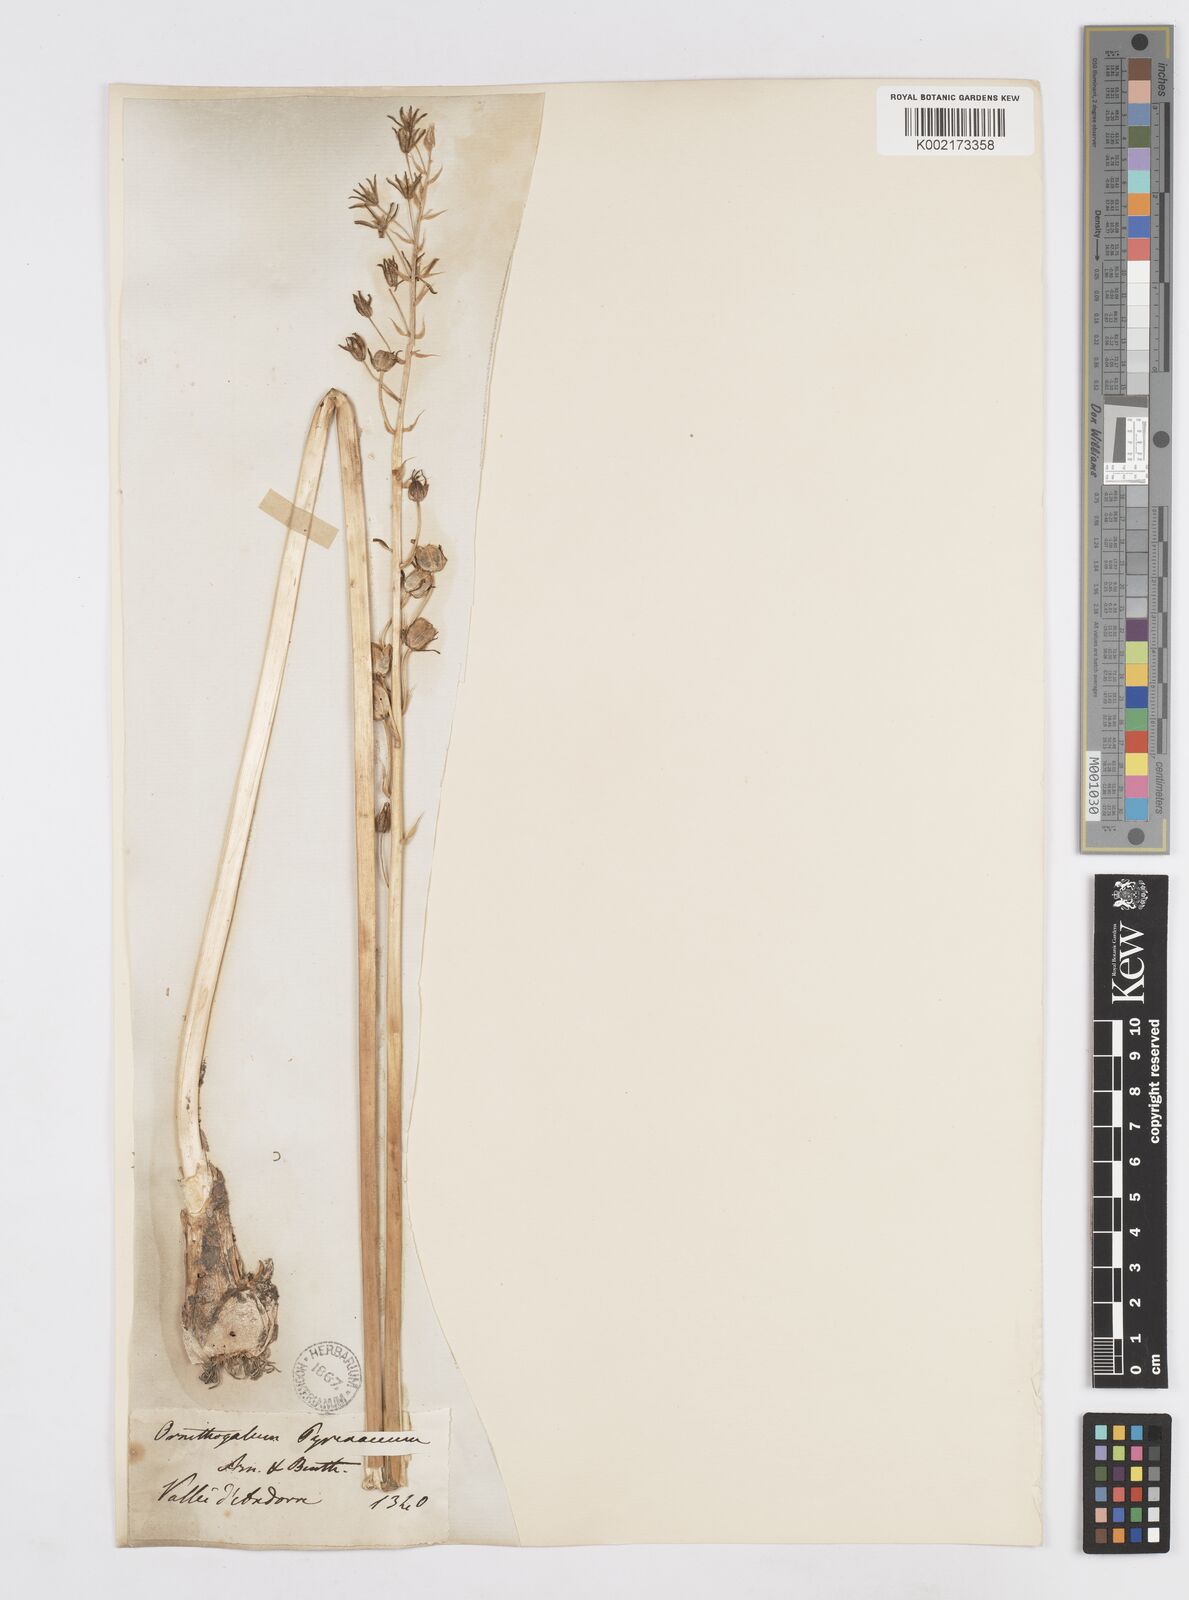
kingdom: Plantae
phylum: Tracheophyta
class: Liliopsida
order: Asparagales
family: Asparagaceae
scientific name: Asparagaceae
